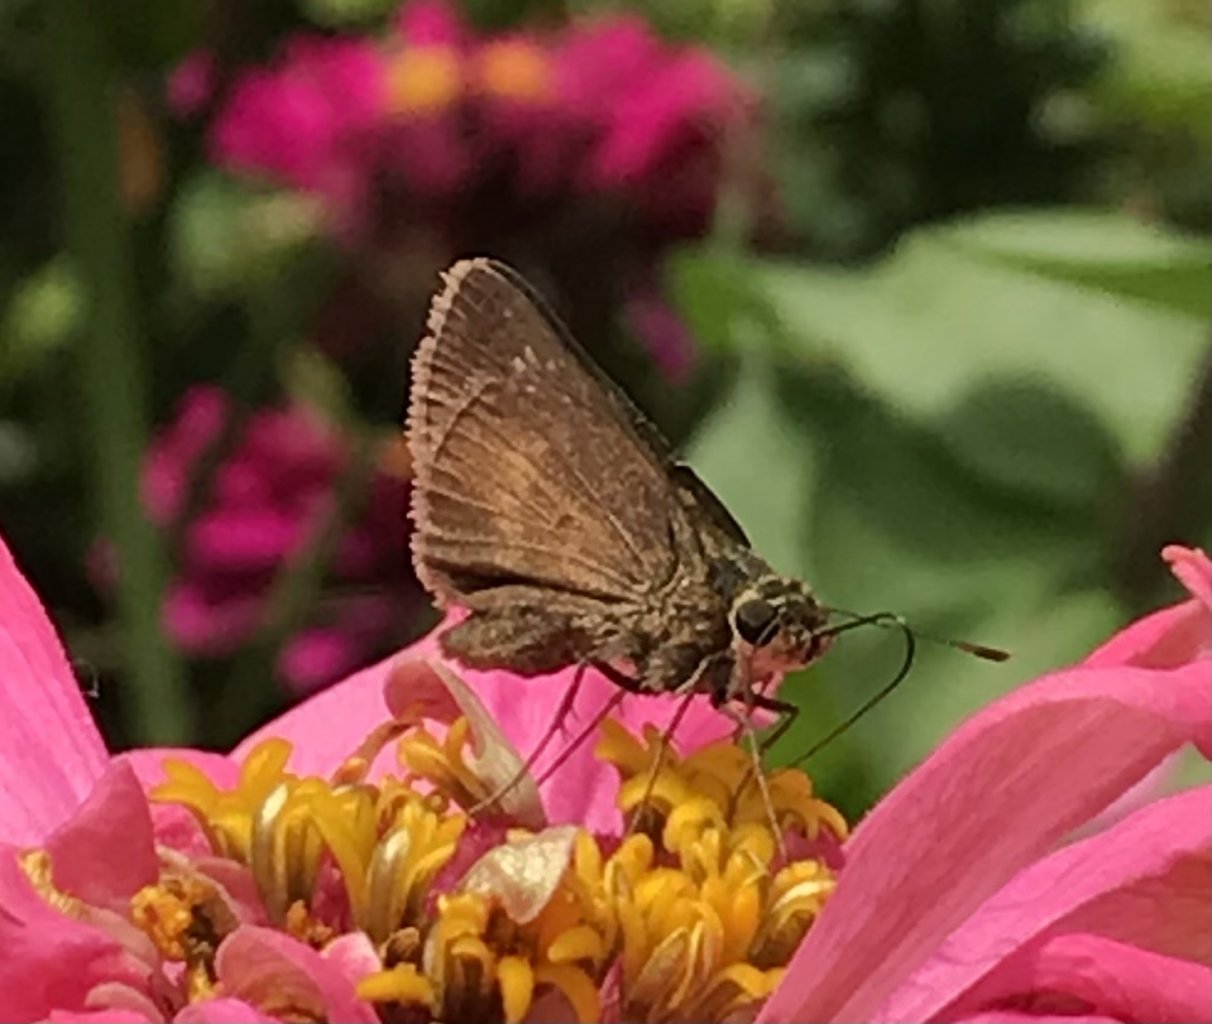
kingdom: Animalia
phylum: Arthropoda
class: Insecta
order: Lepidoptera
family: Hesperiidae
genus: Vernia
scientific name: Vernia verna
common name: Little Glassywing
